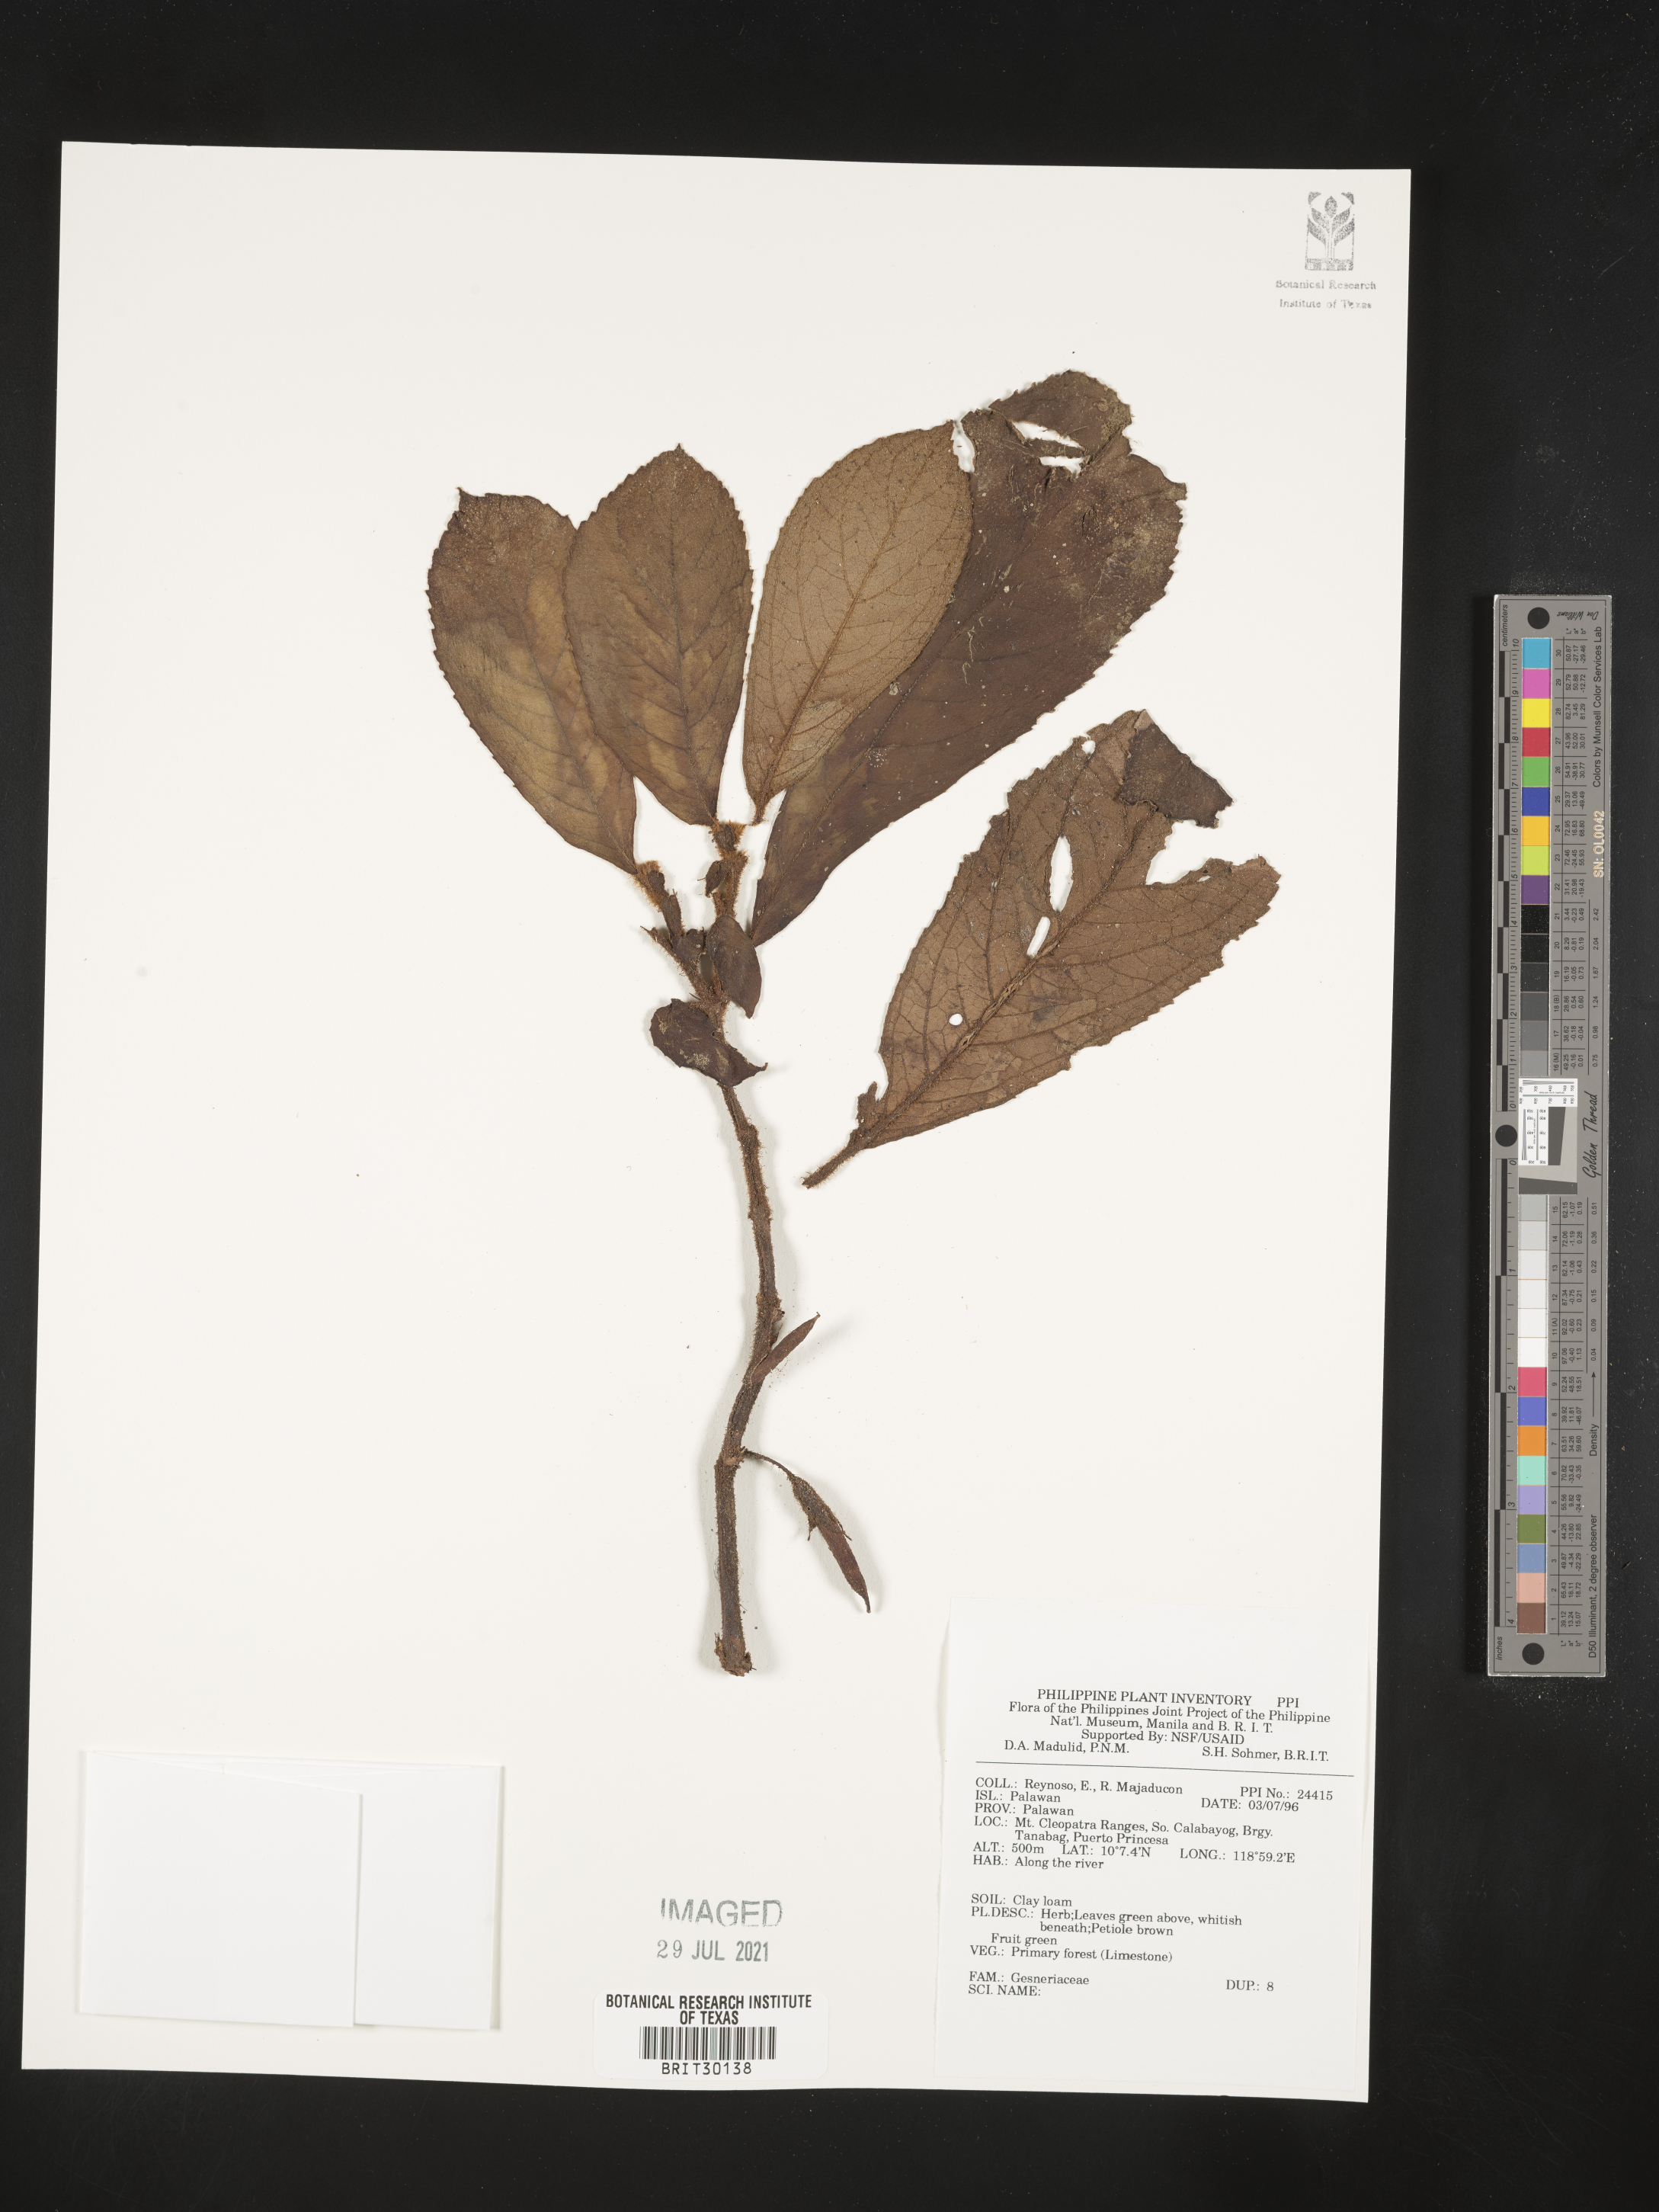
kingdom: Plantae
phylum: Tracheophyta
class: Magnoliopsida
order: Lamiales
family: Gesneriaceae
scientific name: Gesneriaceae
